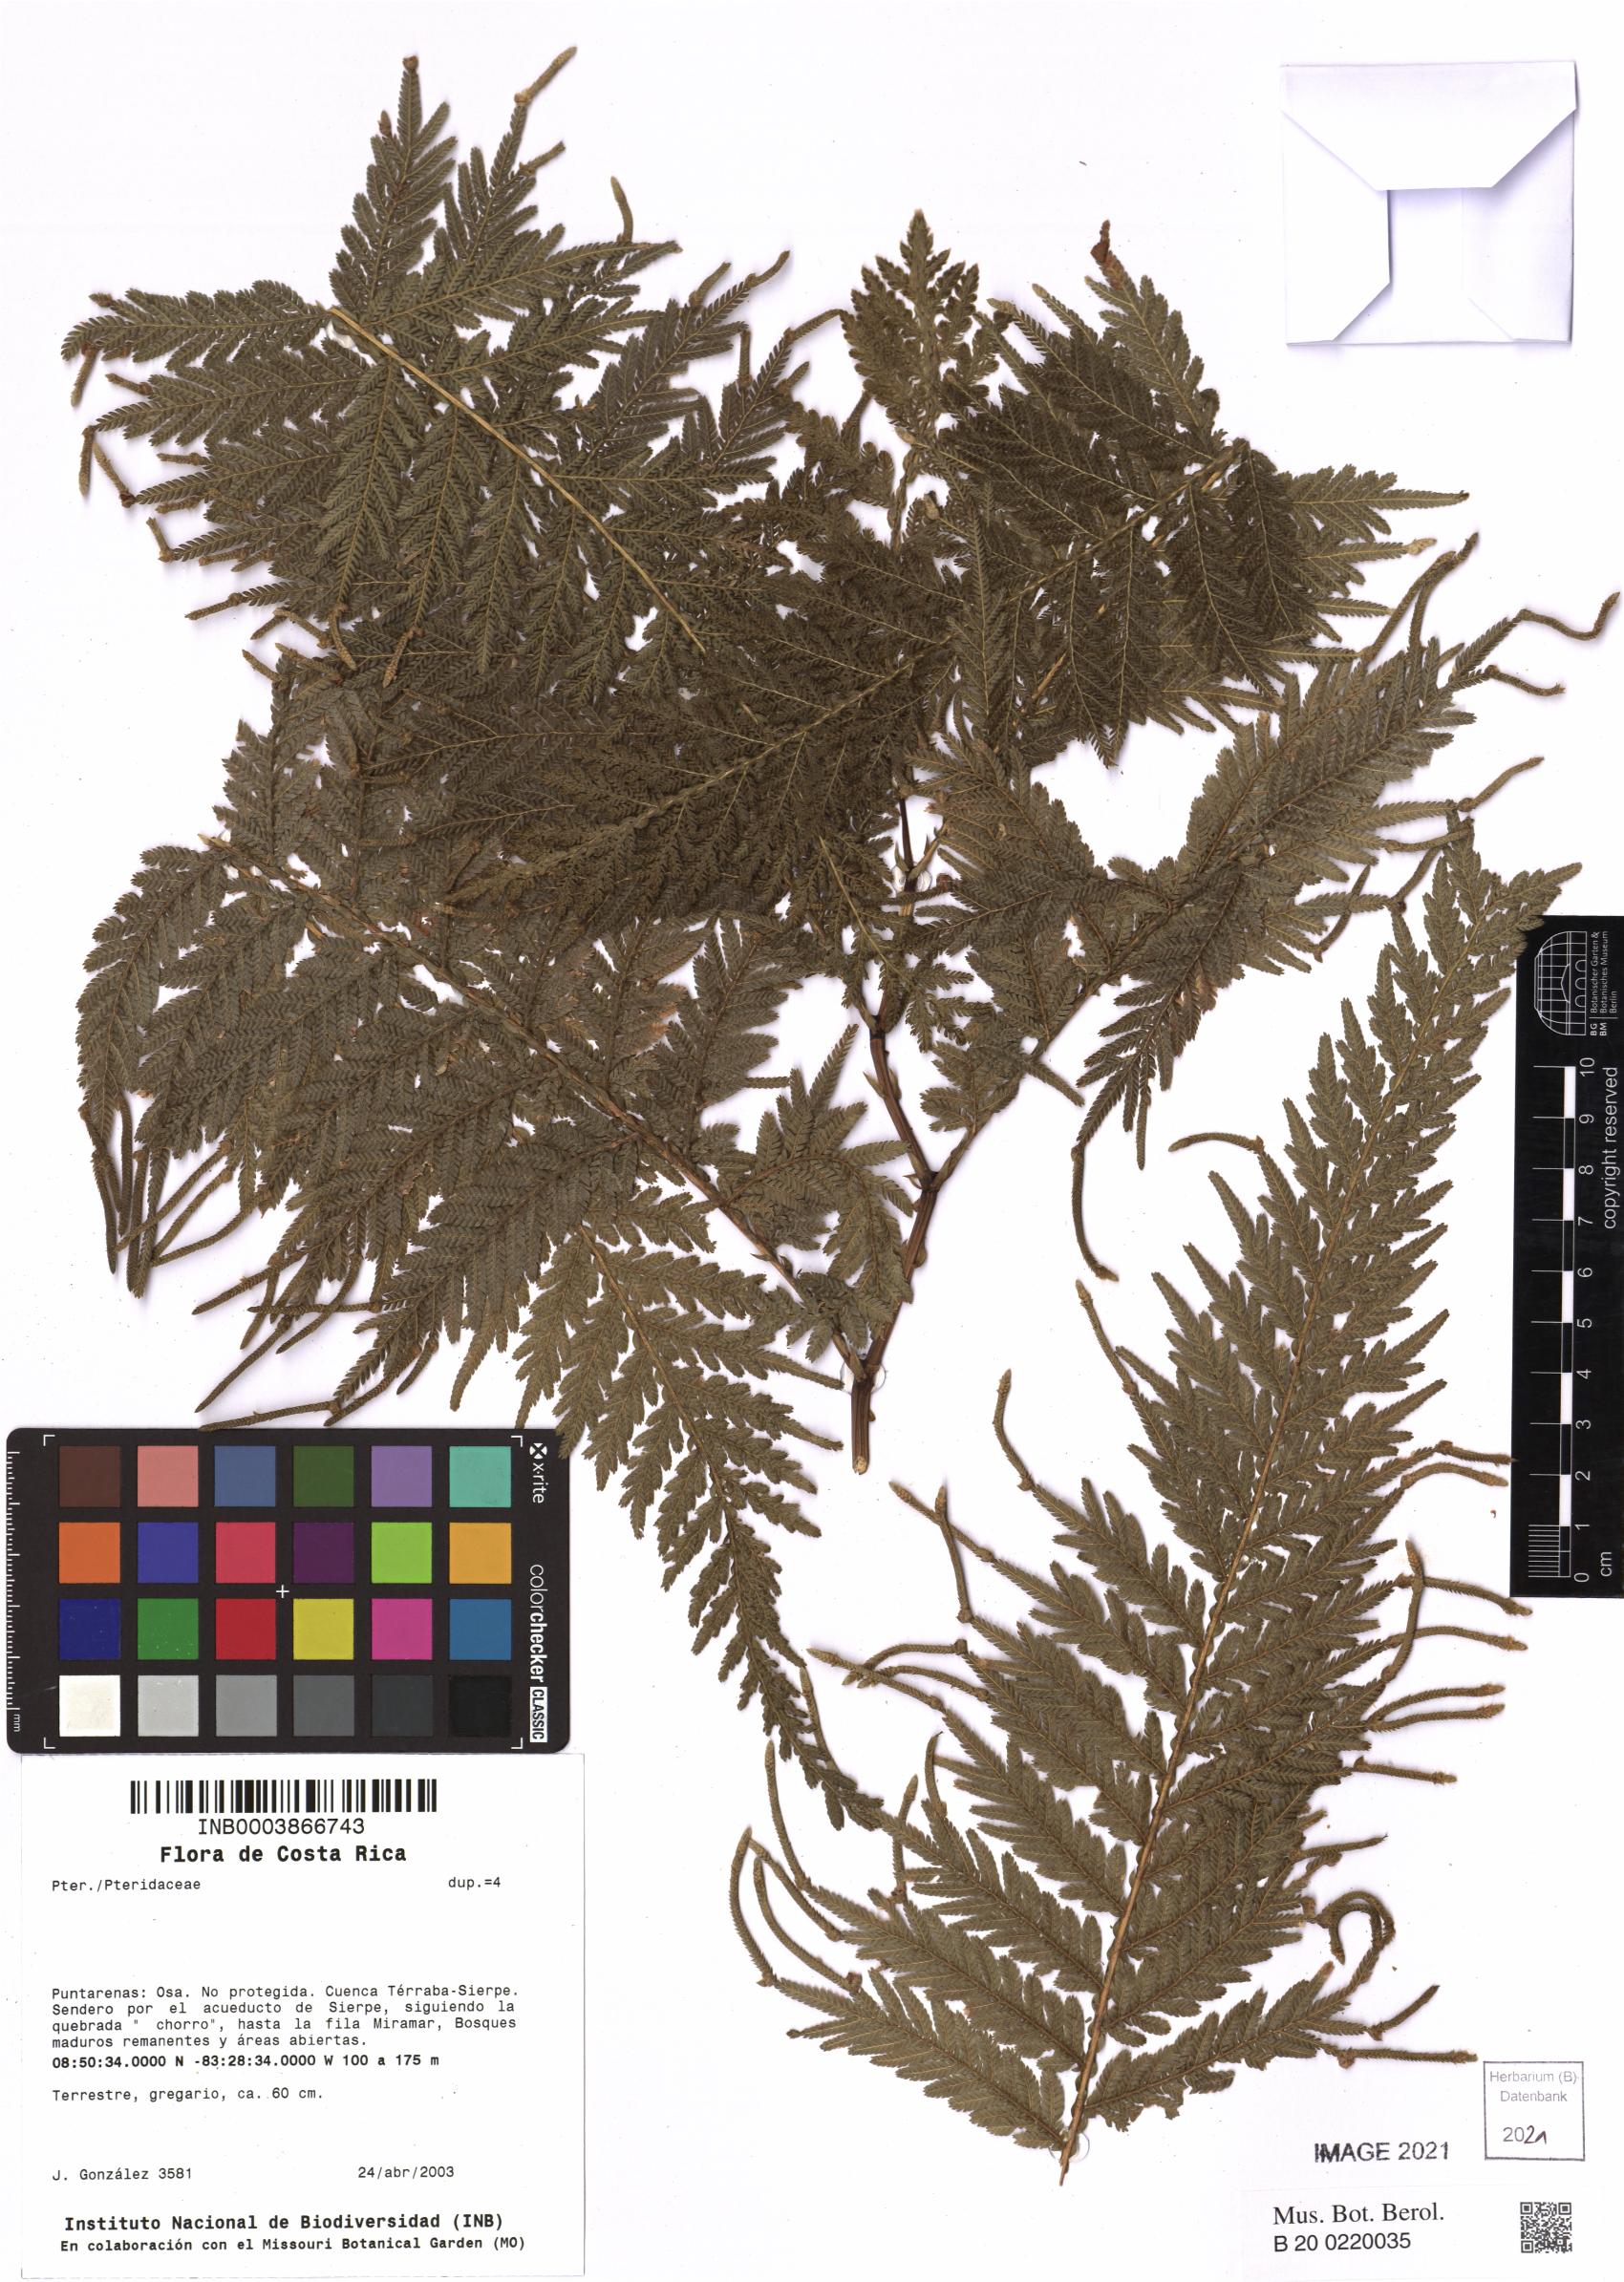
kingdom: Plantae
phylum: Tracheophyta
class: Lycopodiopsida
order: Selaginellales
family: Selaginellaceae
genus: Selaginella
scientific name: Selaginella
